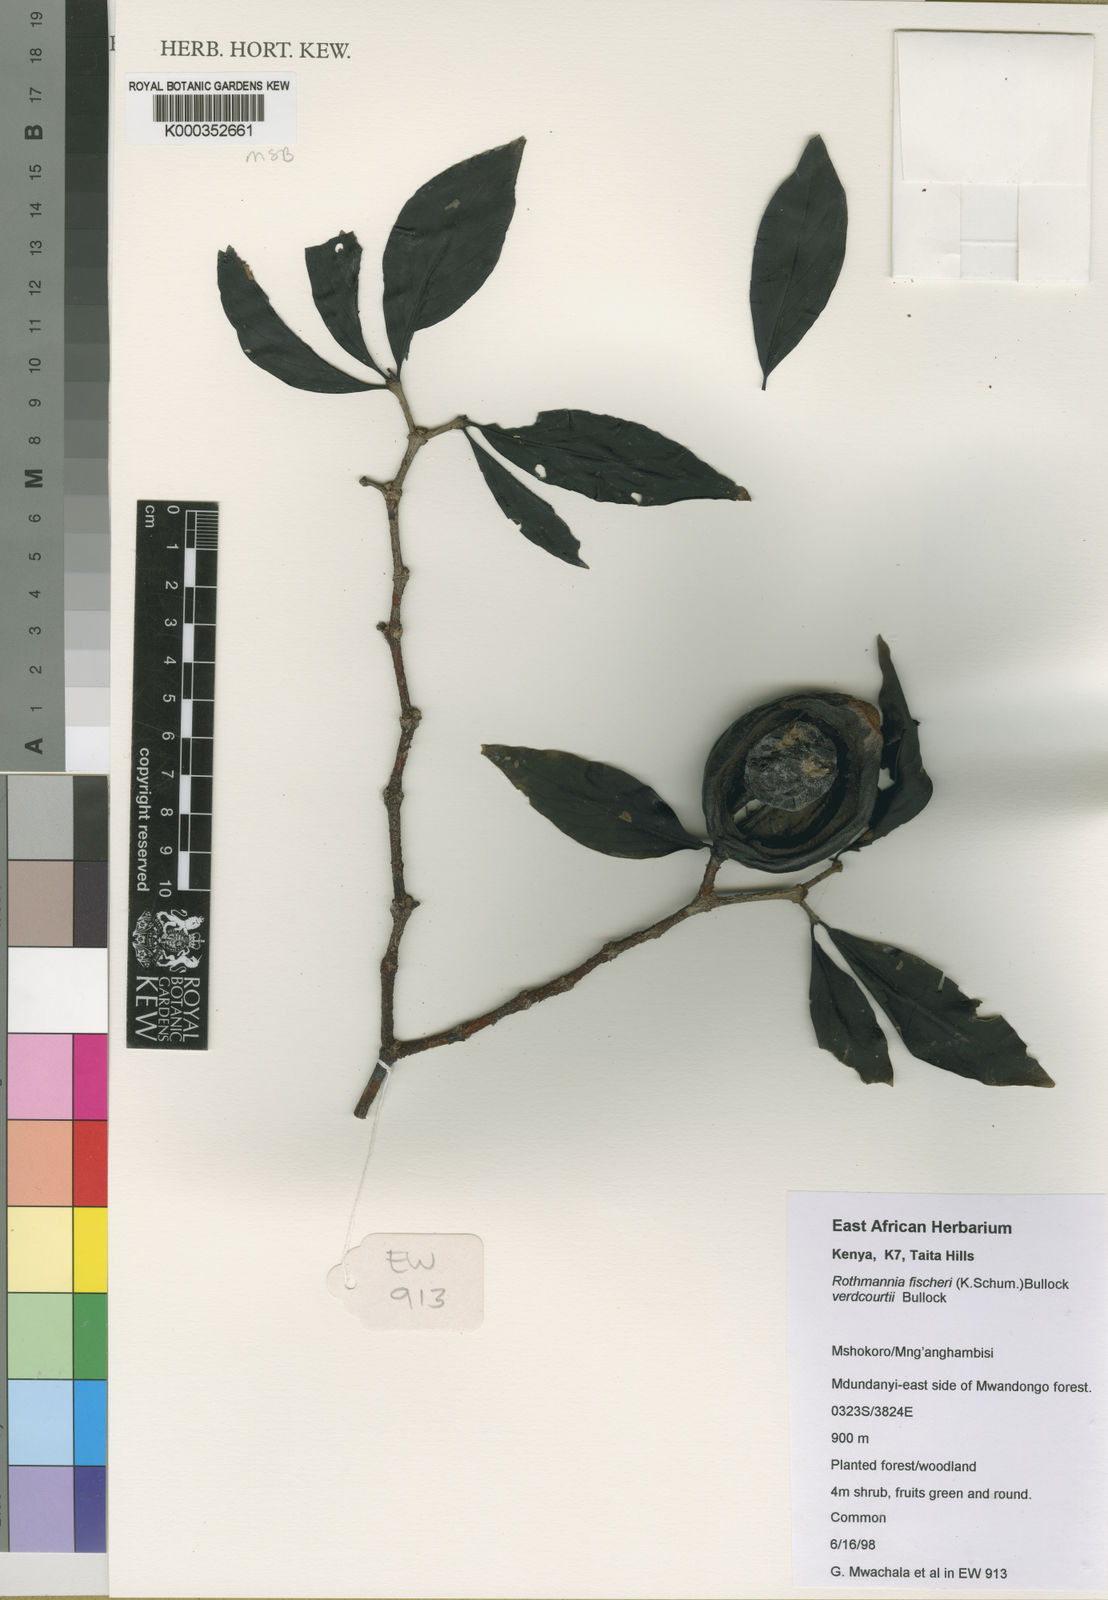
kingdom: Plantae
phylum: Tracheophyta
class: Magnoliopsida
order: Gentianales
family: Rubiaceae
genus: Rothmannia
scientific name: Rothmannia fischeri
